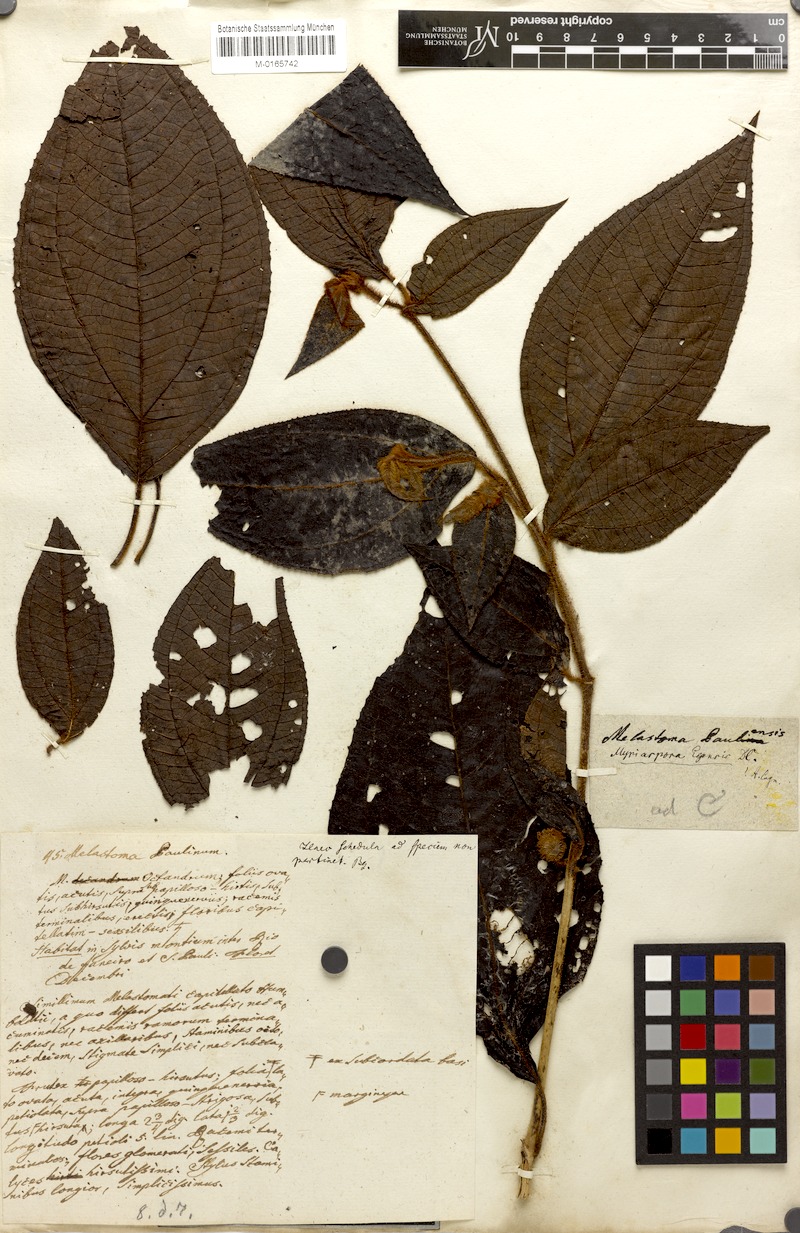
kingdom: Plantae
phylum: Tracheophyta
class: Magnoliopsida
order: Myrtales
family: Melastomataceae
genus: Bellucia
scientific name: Bellucia egensis
